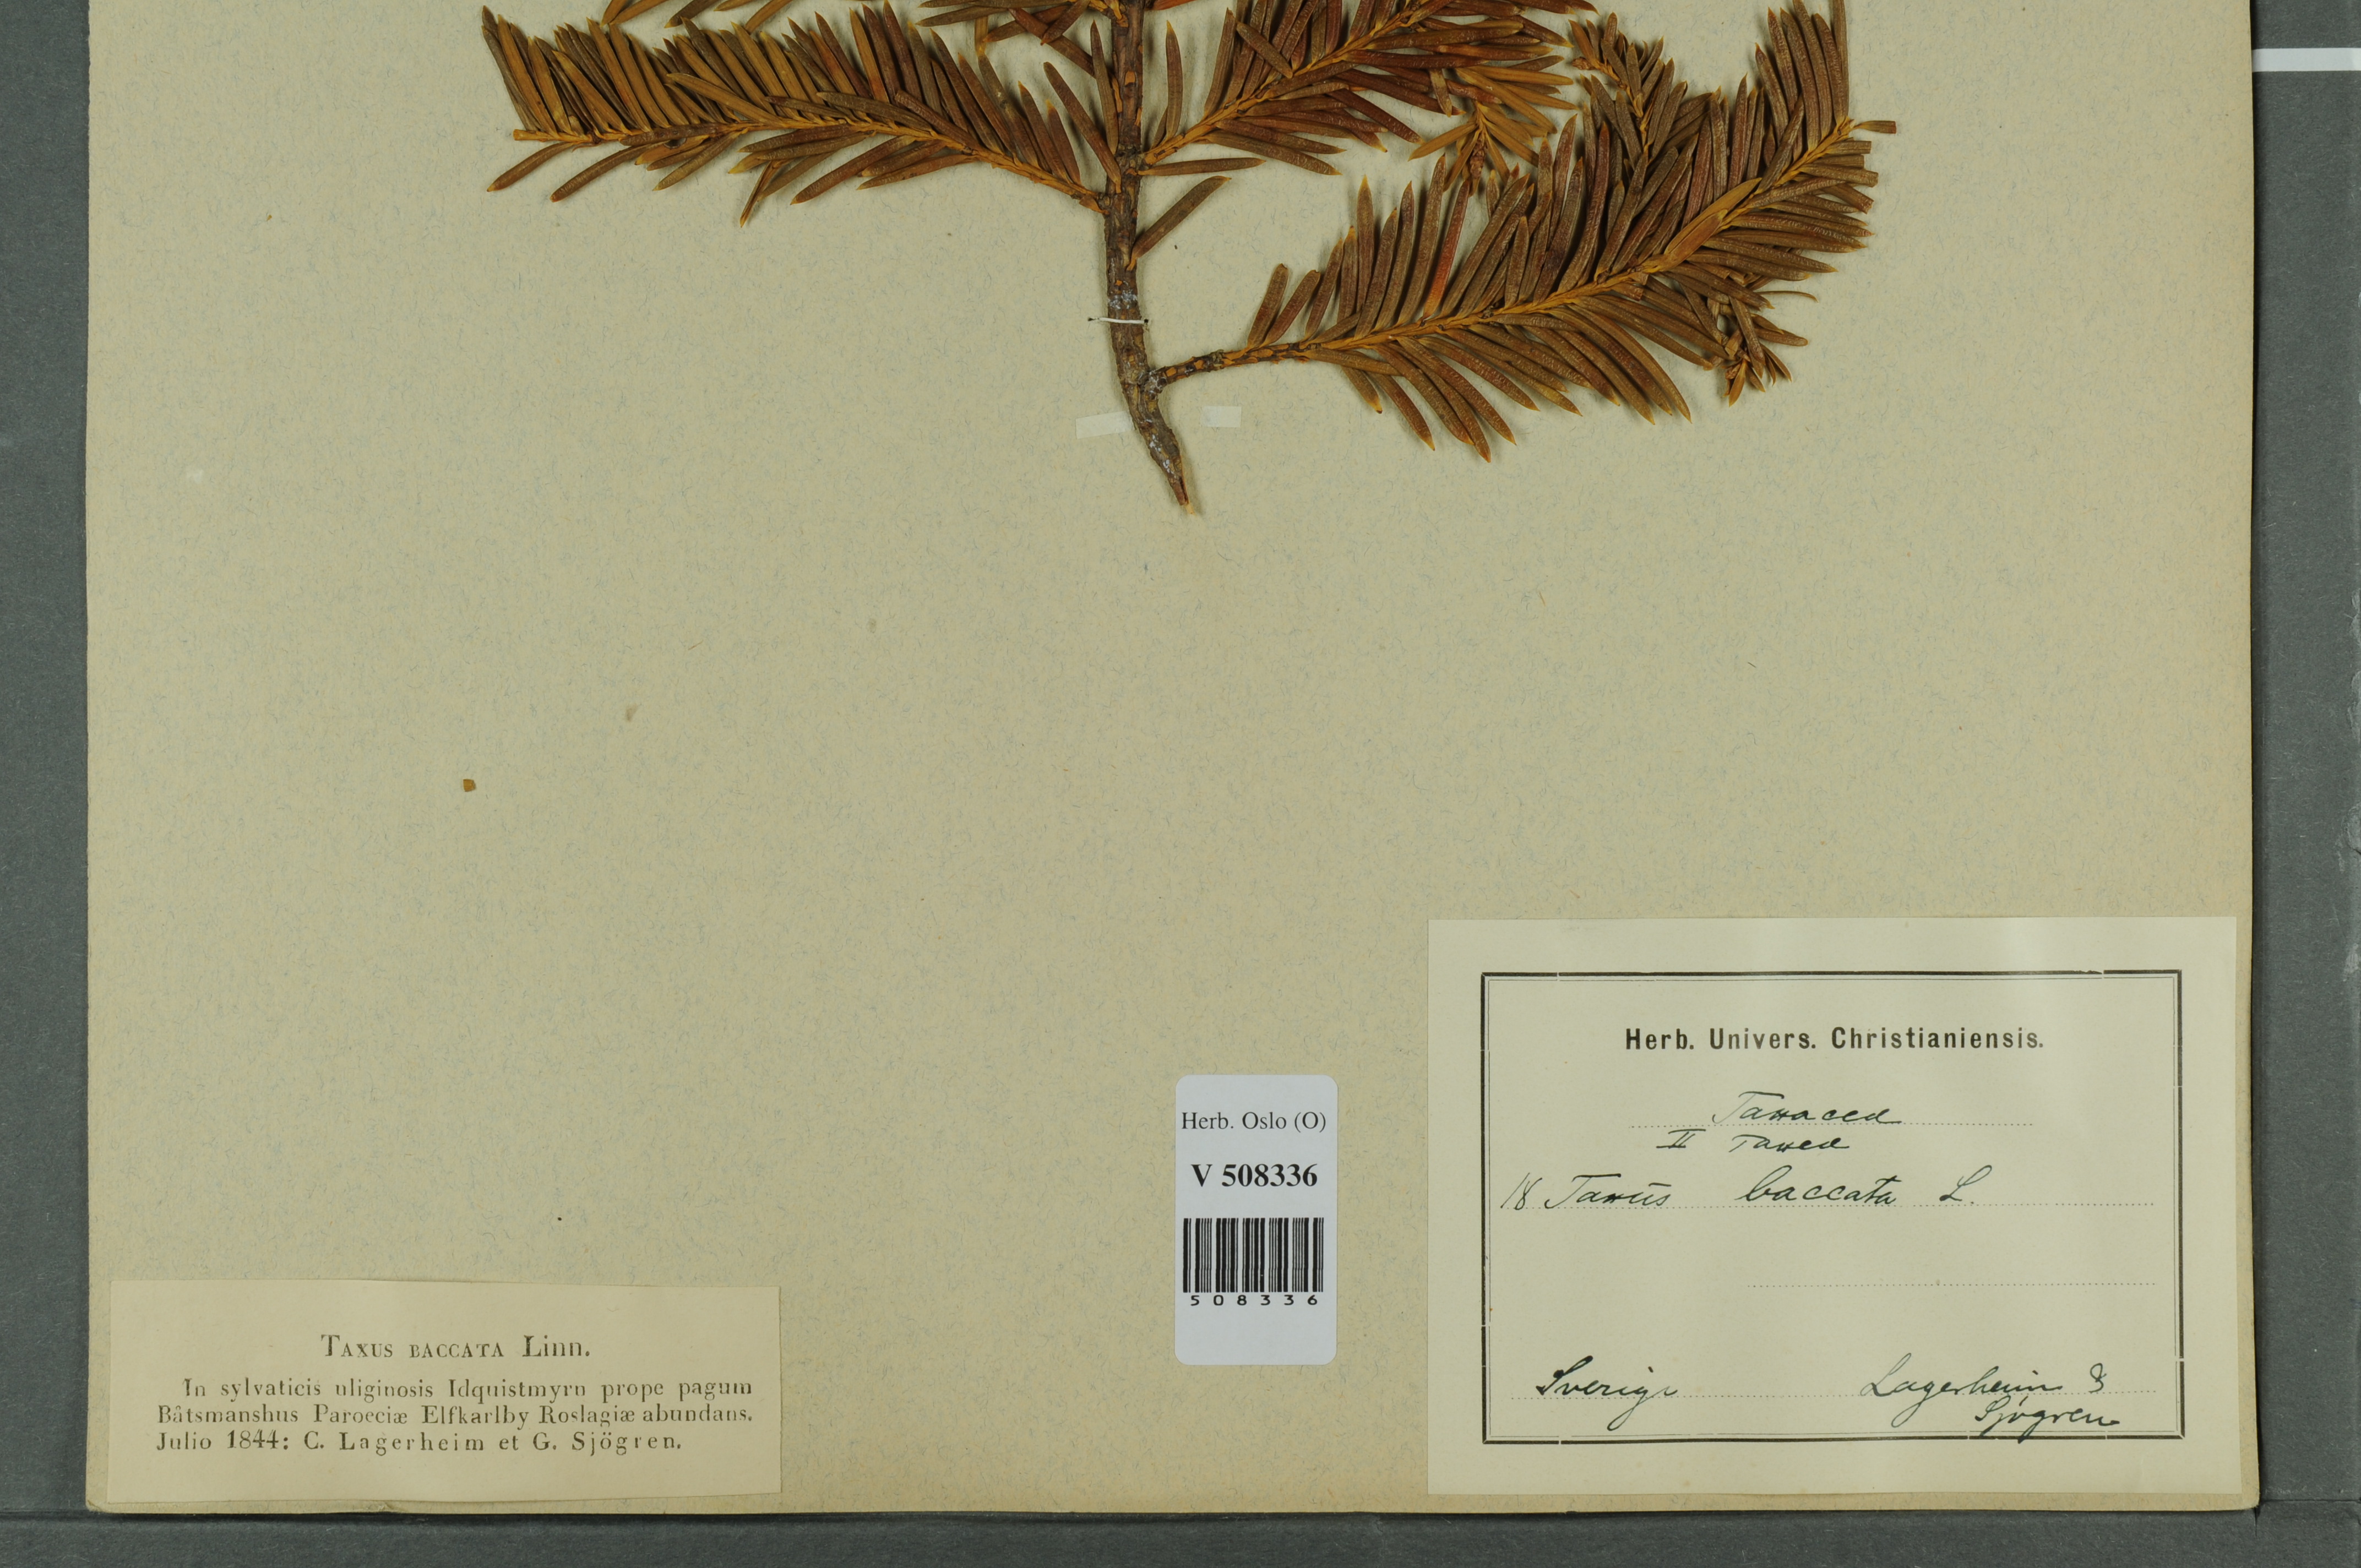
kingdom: Plantae
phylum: Tracheophyta
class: Pinopsida
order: Pinales
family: Taxaceae
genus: Taxus
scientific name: Taxus baccata
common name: Yew
